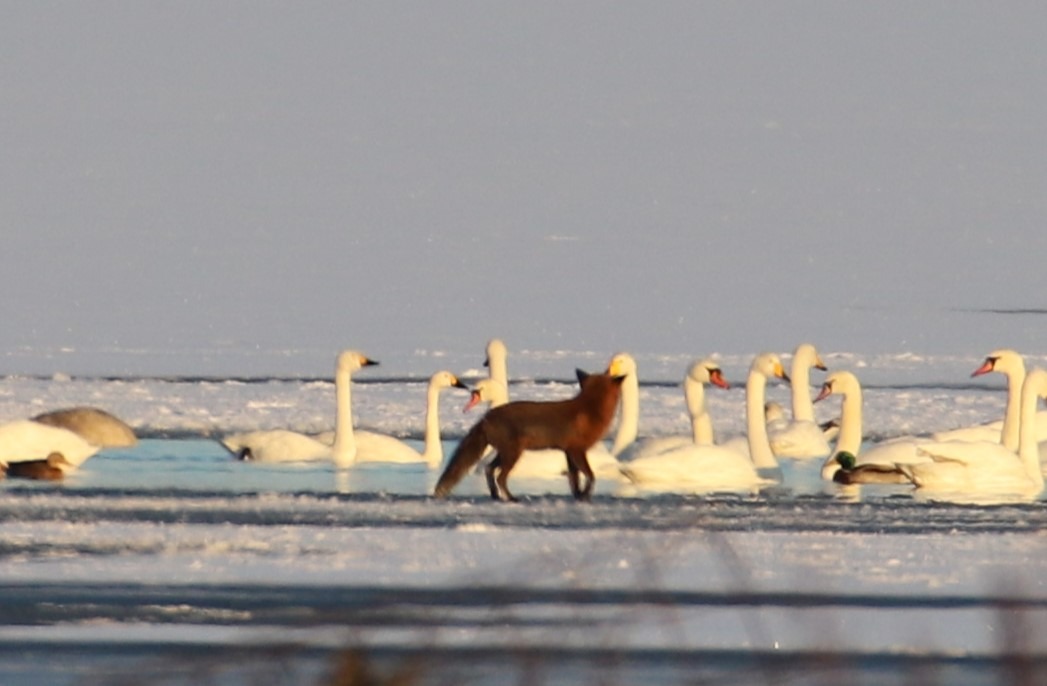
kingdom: Animalia
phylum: Chordata
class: Aves
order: Anseriformes
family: Anatidae
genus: Cygnus
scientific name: Cygnus columbianus
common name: Pibesvane
